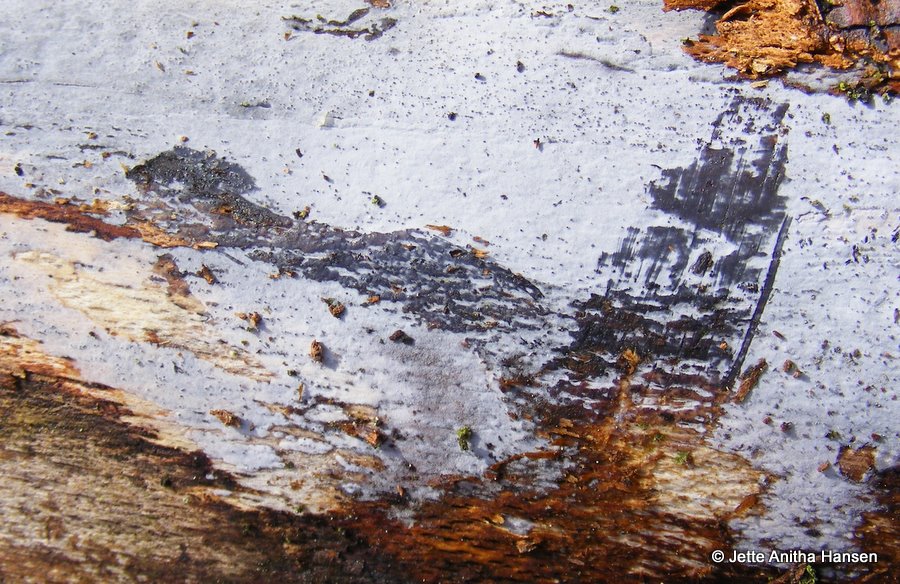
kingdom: Fungi
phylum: Basidiomycota
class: Tremellomycetes
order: Tremellales
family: Exidiaceae
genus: Exidiopsis
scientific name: Exidiopsis effusa
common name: smuk bævrehinde
